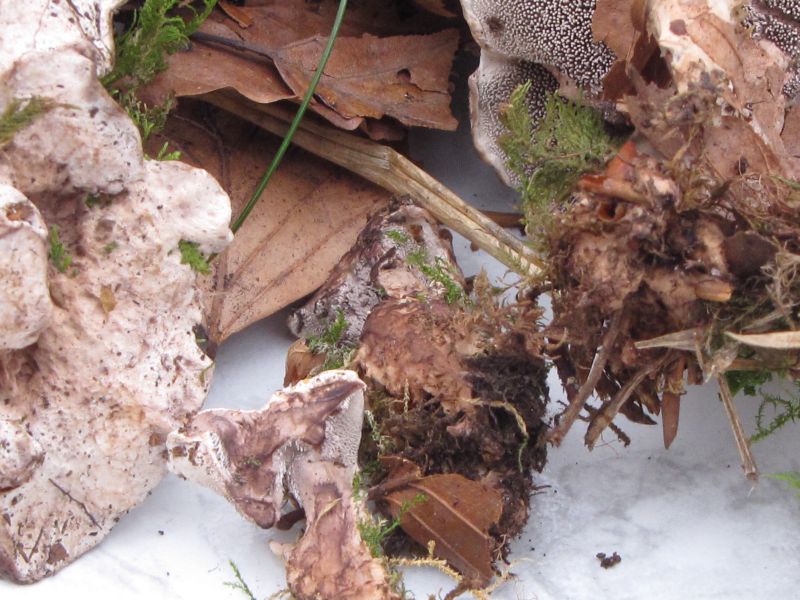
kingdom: Fungi
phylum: Basidiomycota
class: Agaricomycetes
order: Thelephorales
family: Bankeraceae
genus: Hydnellum
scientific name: Hydnellum spongiosipes
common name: filtet korkpigsvamp
